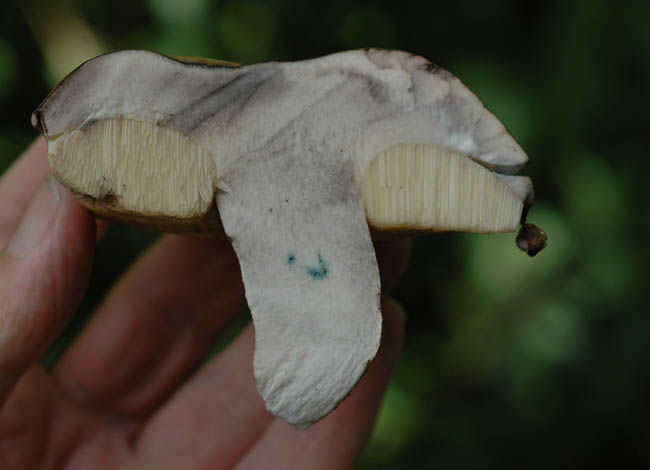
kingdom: Fungi
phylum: Basidiomycota
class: Agaricomycetes
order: Boletales
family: Boletaceae
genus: Leccinum
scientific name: Leccinum duriusculum
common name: poppel-skælrørhat
